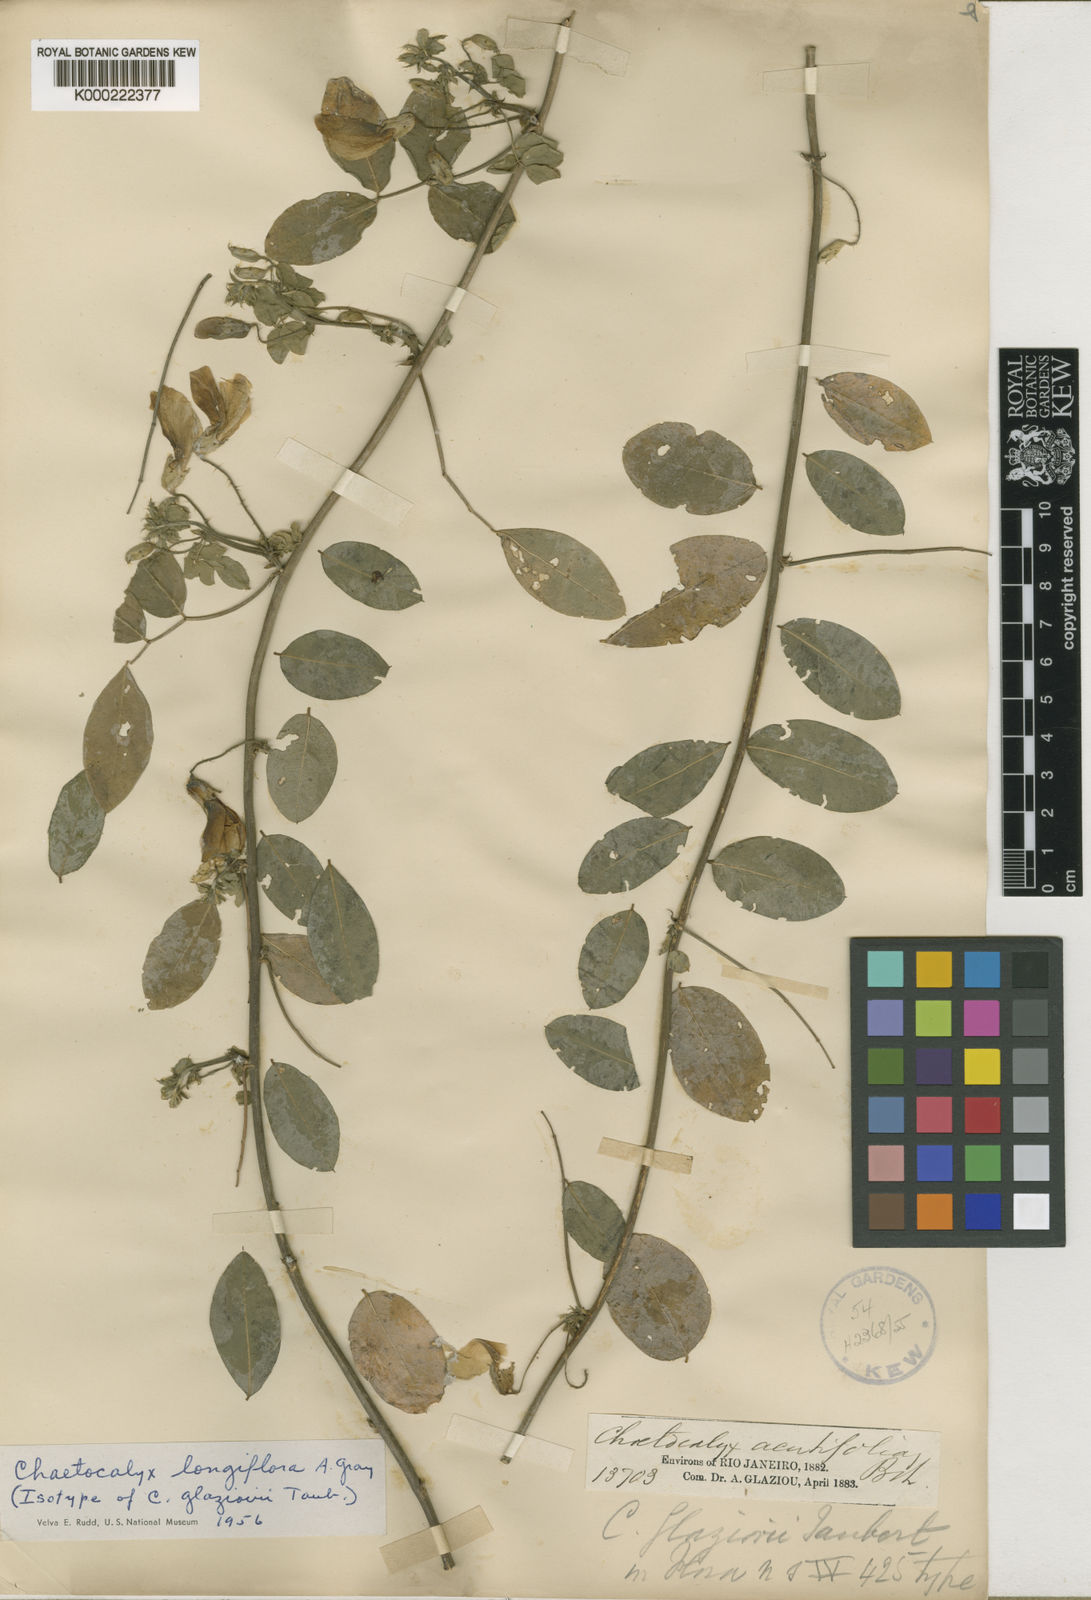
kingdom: Plantae
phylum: Tracheophyta
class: Magnoliopsida
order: Fabales
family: Fabaceae
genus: Nissolia
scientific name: Nissolia longiflora
